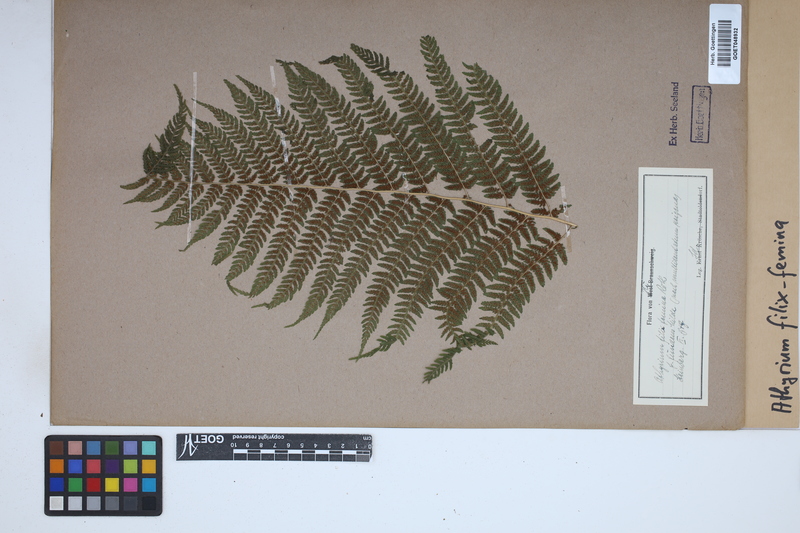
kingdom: Plantae
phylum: Tracheophyta
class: Polypodiopsida
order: Polypodiales
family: Athyriaceae
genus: Athyrium
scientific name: Athyrium filix-femina
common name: Lady fern
